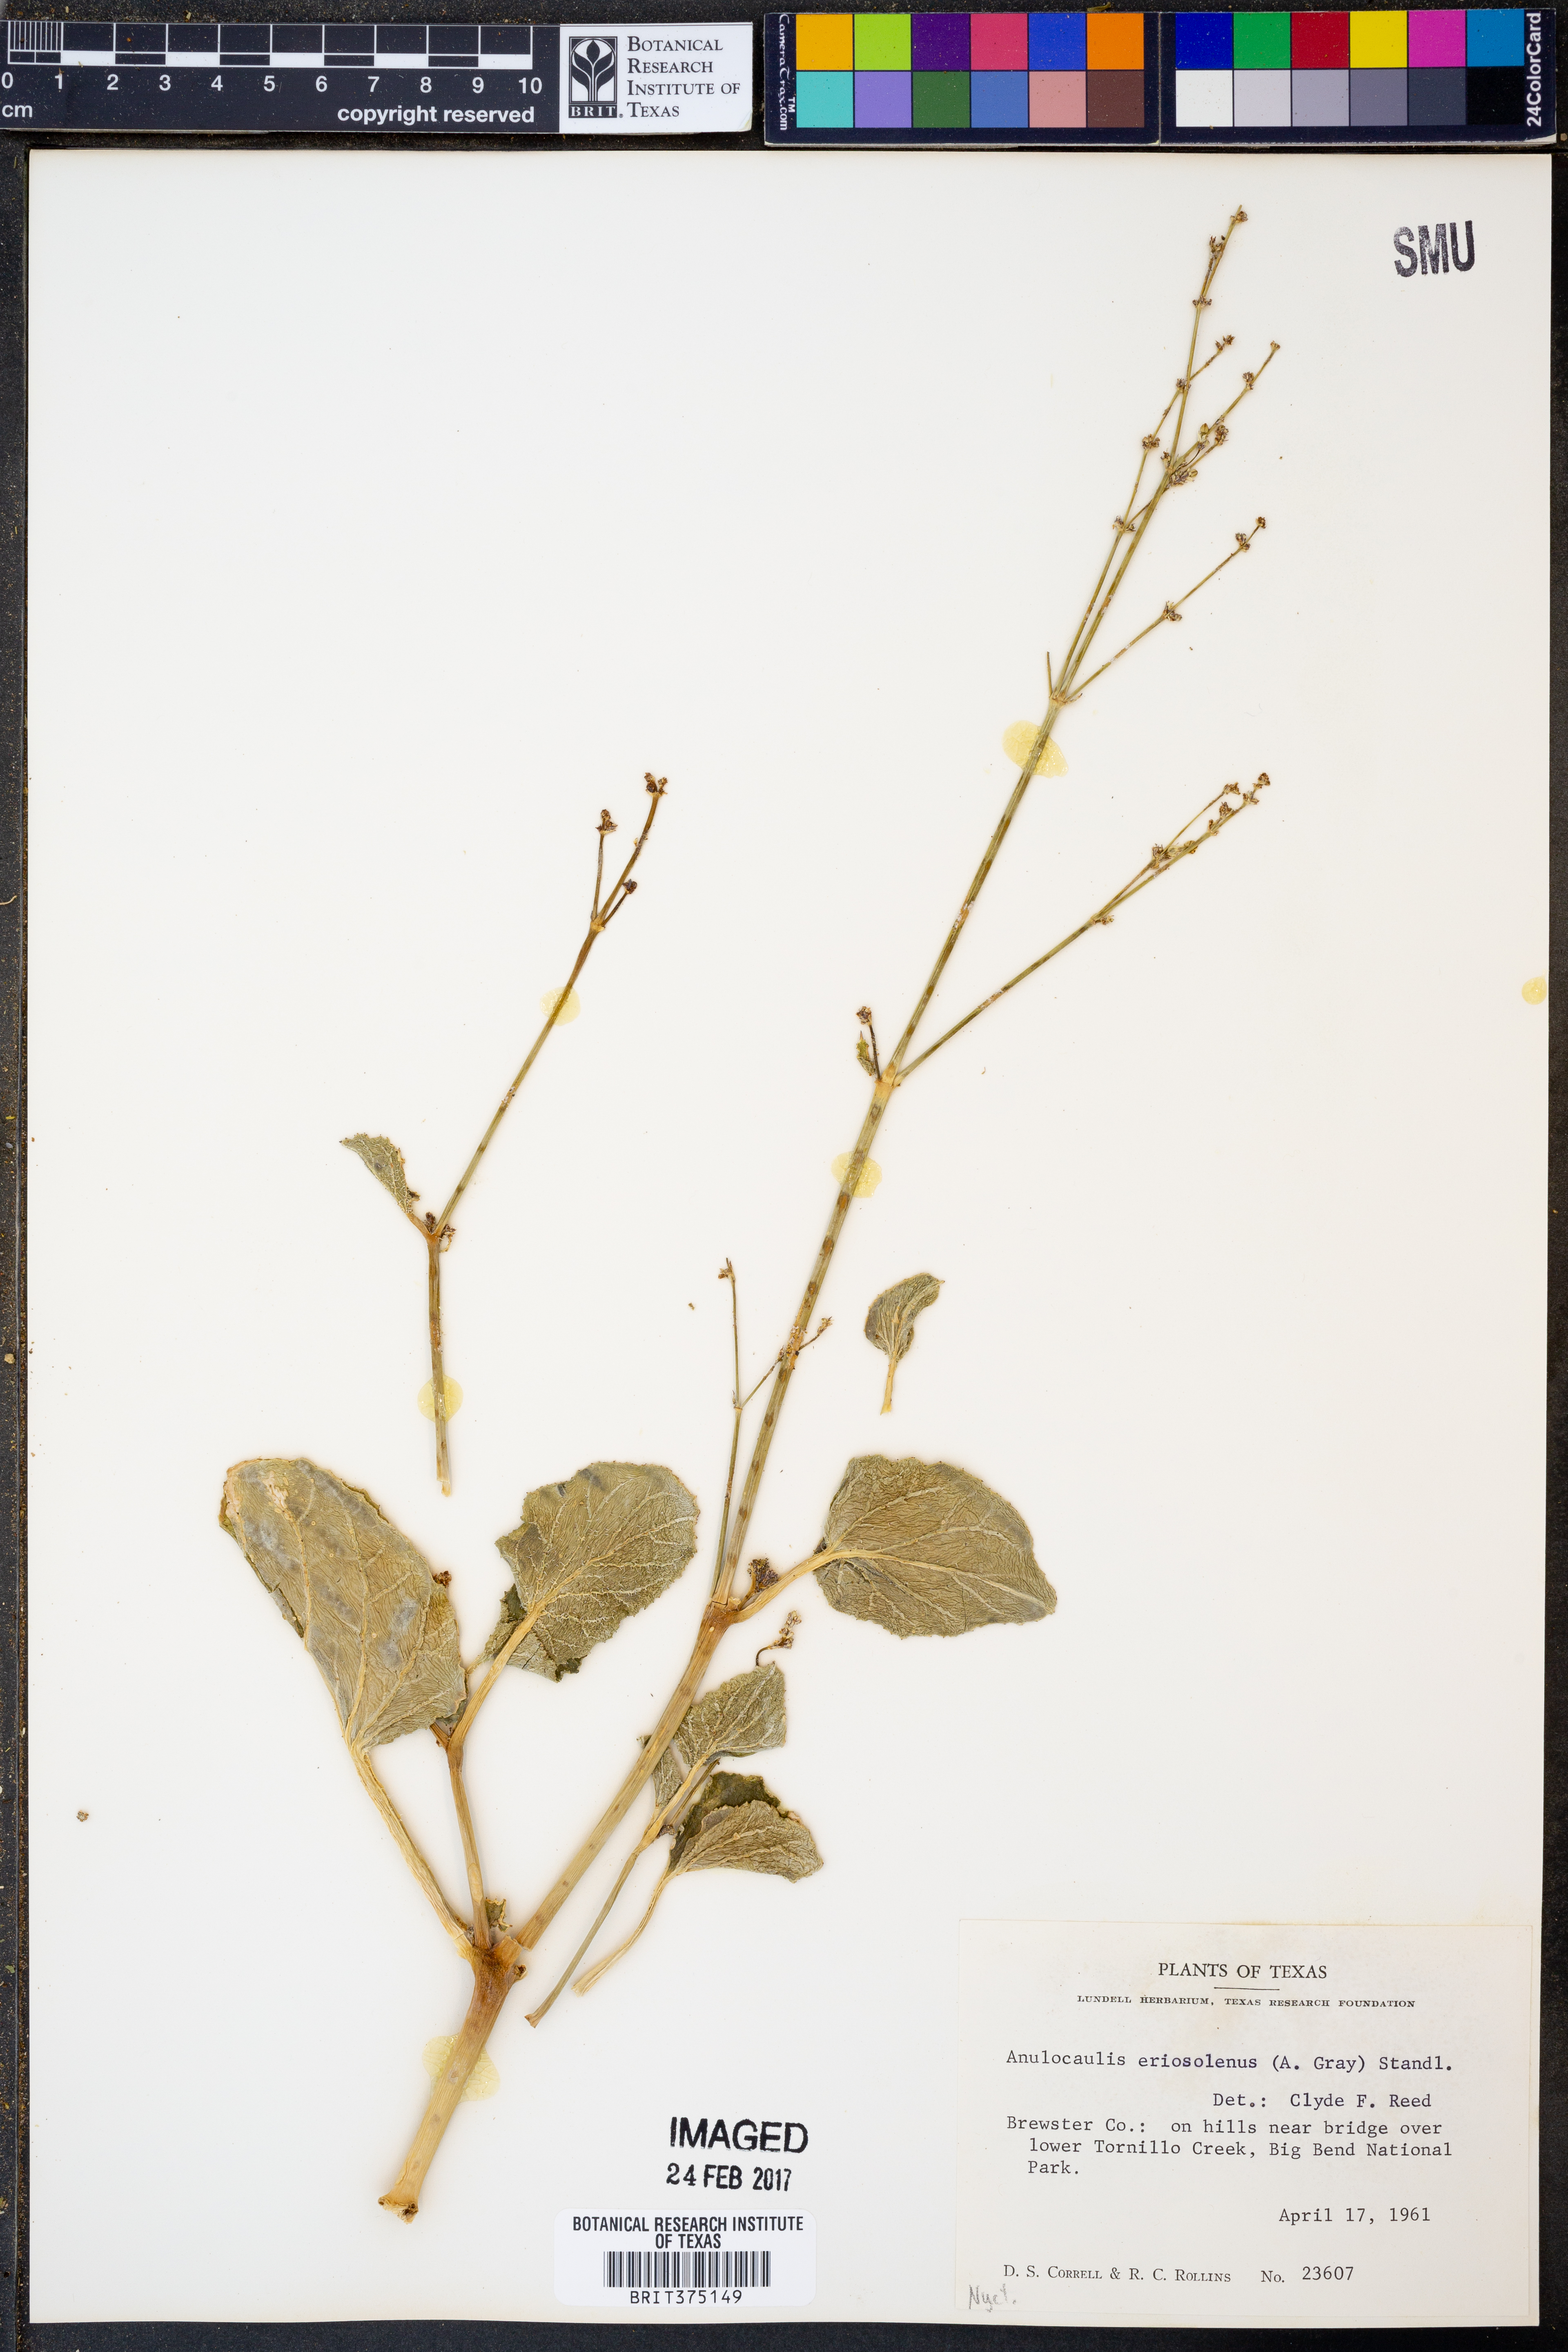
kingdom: Plantae
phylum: Tracheophyta
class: Magnoliopsida
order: Caryophyllales
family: Nyctaginaceae
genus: Anulocaulis
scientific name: Anulocaulis eriosolenus
